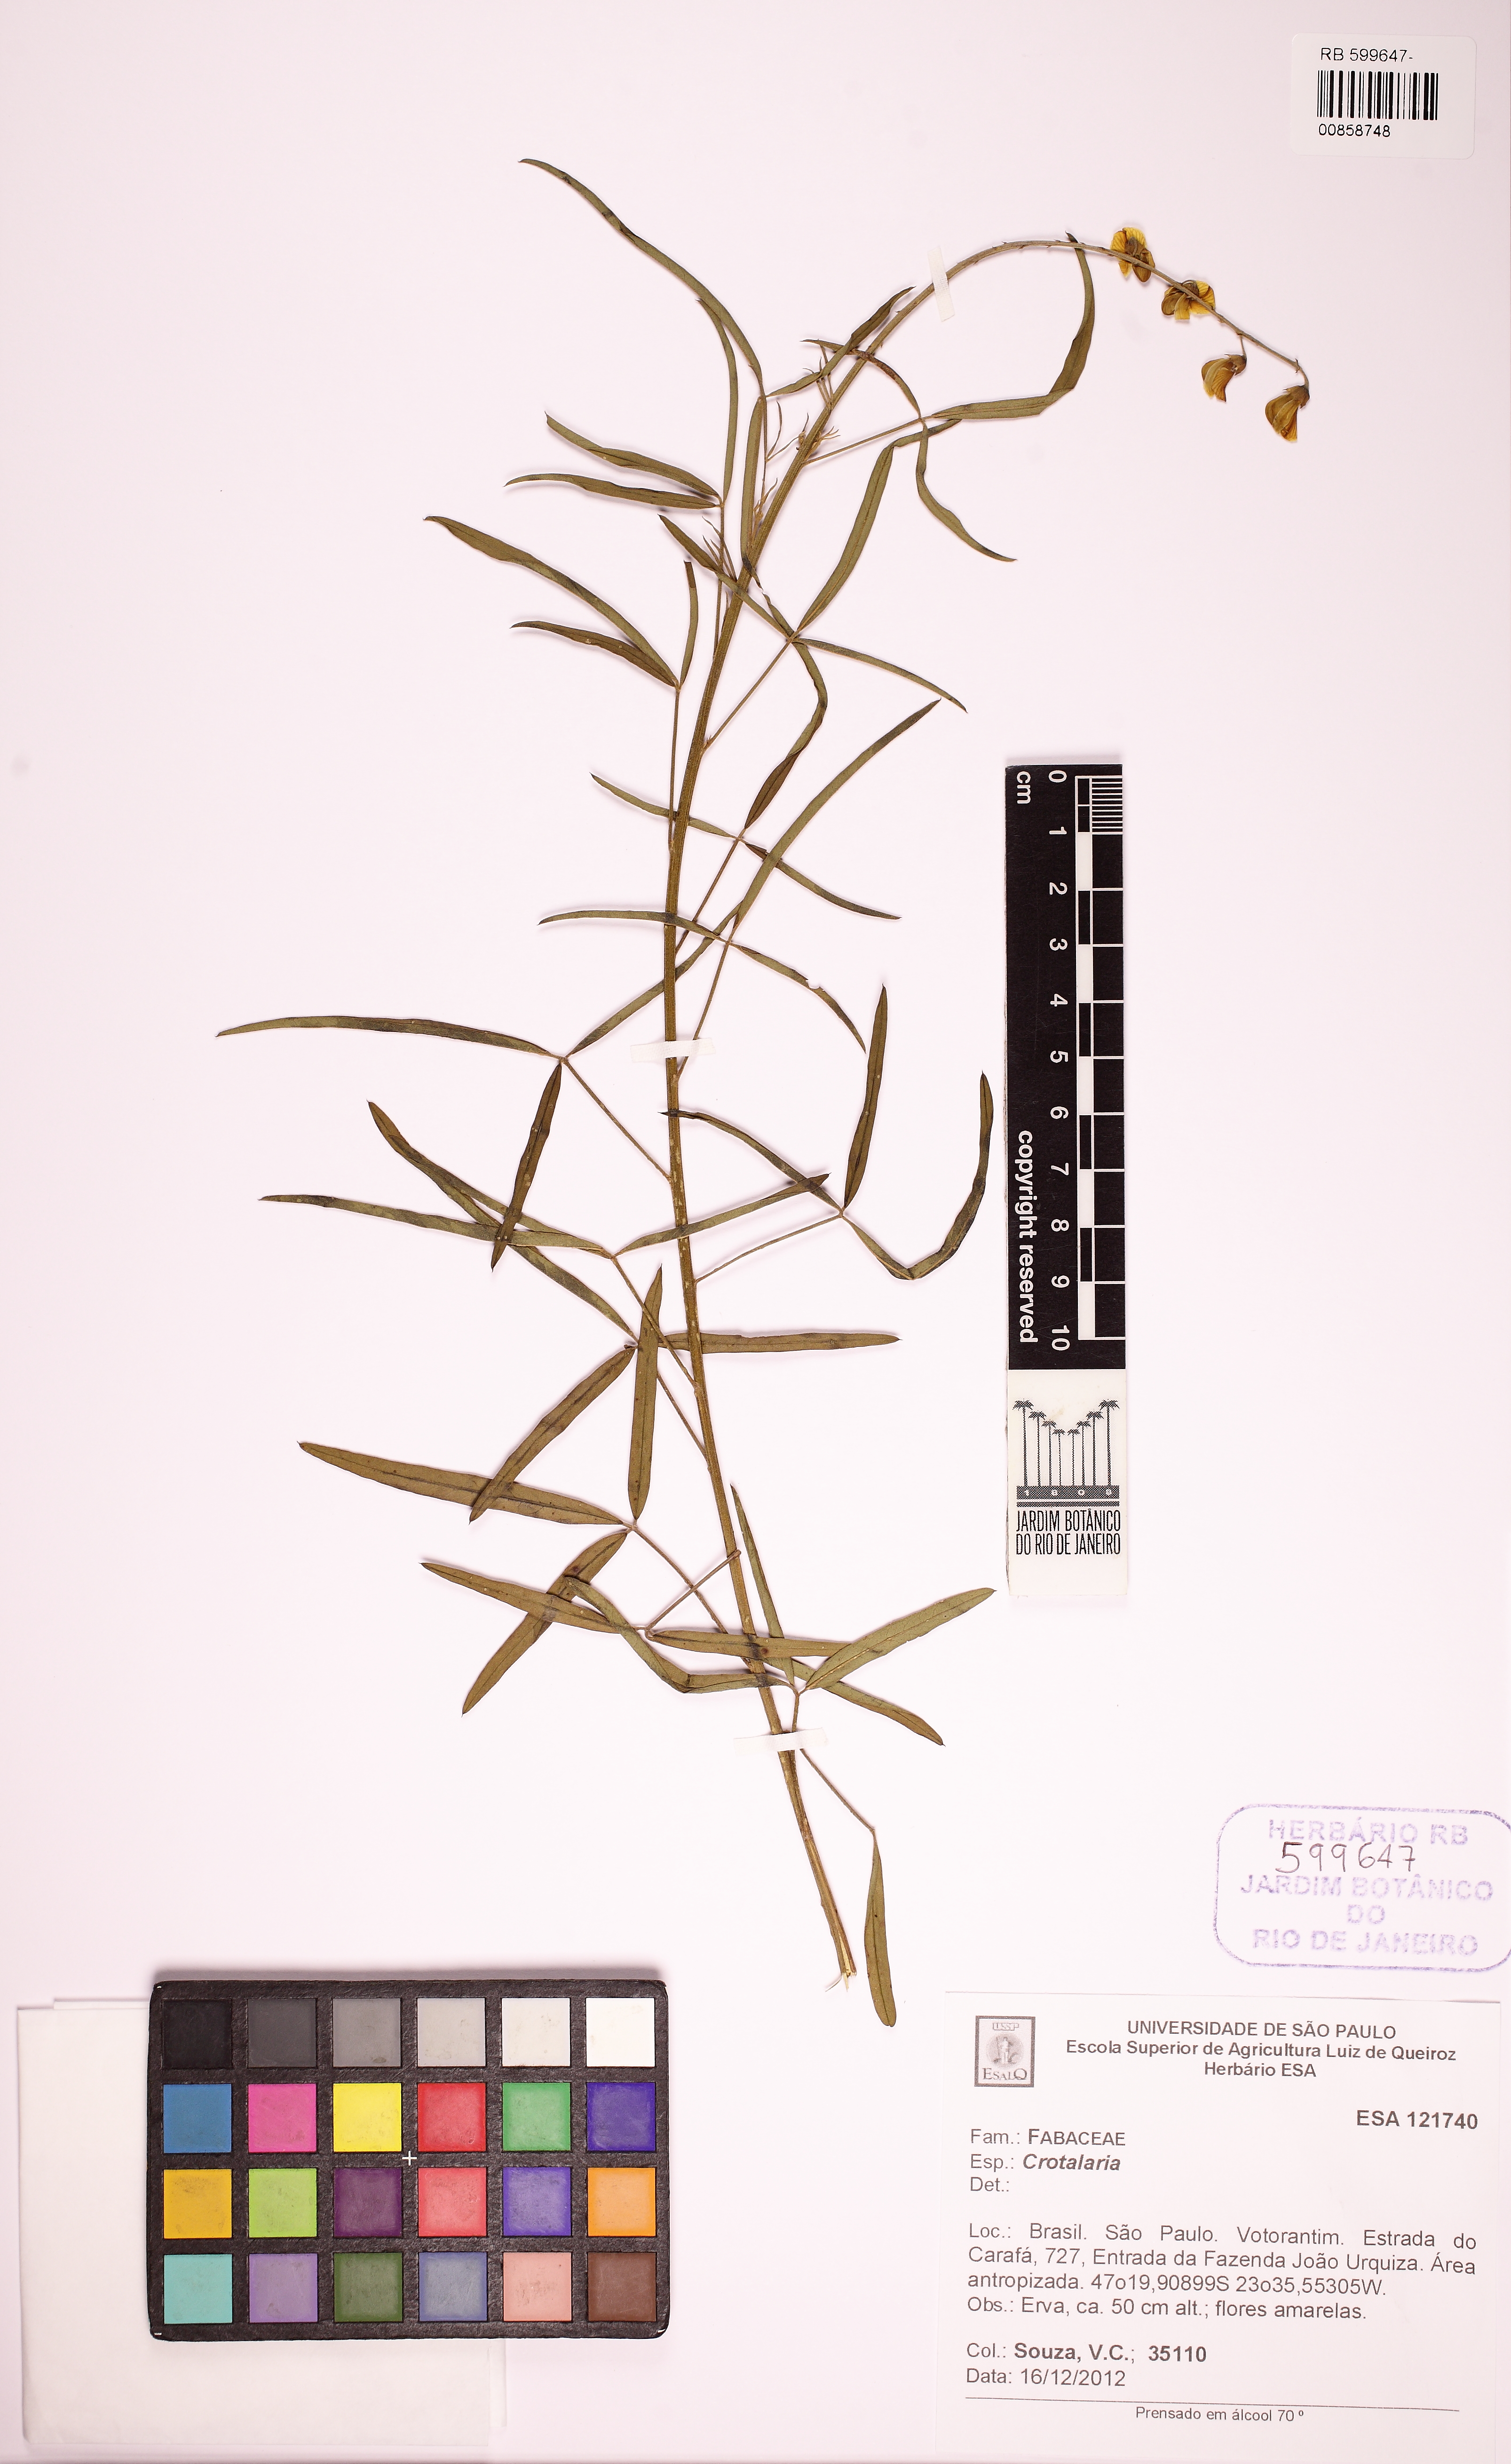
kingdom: Plantae
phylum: Tracheophyta
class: Magnoliopsida
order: Fabales
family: Fabaceae
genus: Crotalaria
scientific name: Crotalaria
